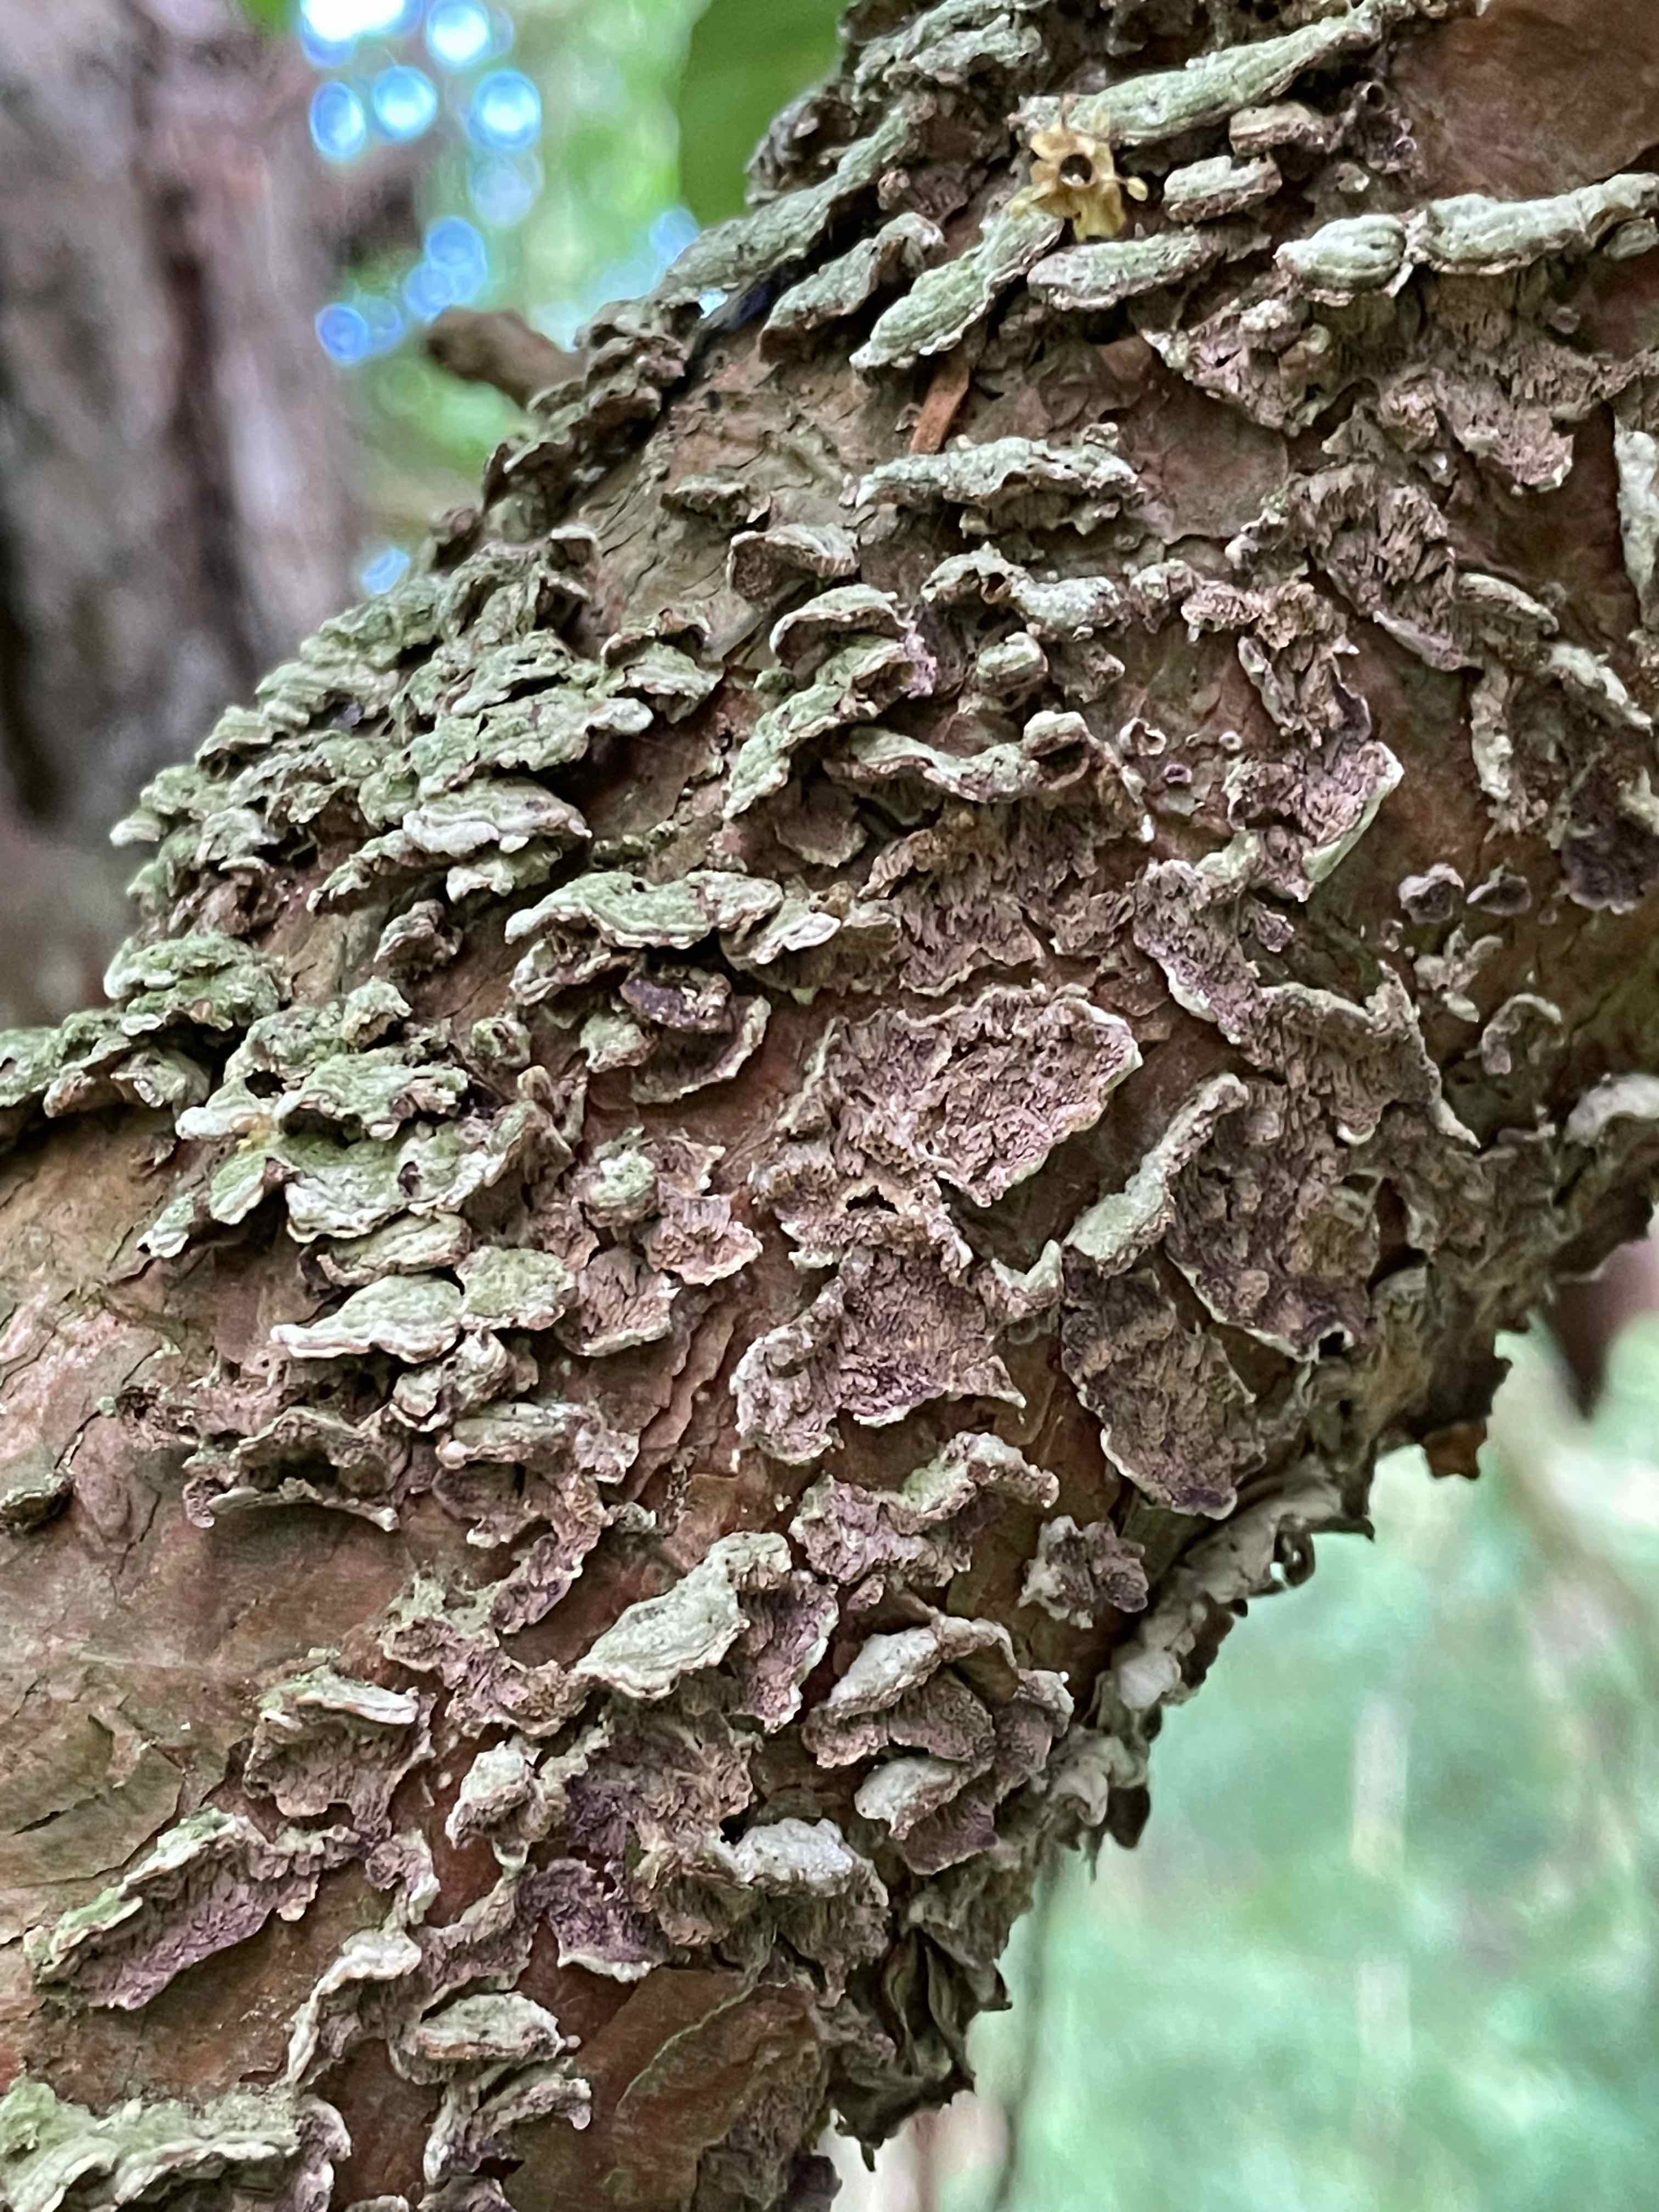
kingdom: Fungi
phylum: Basidiomycota
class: Agaricomycetes
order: Hymenochaetales
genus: Trichaptum
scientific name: Trichaptum abietinum
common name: almindelig violporesvamp
